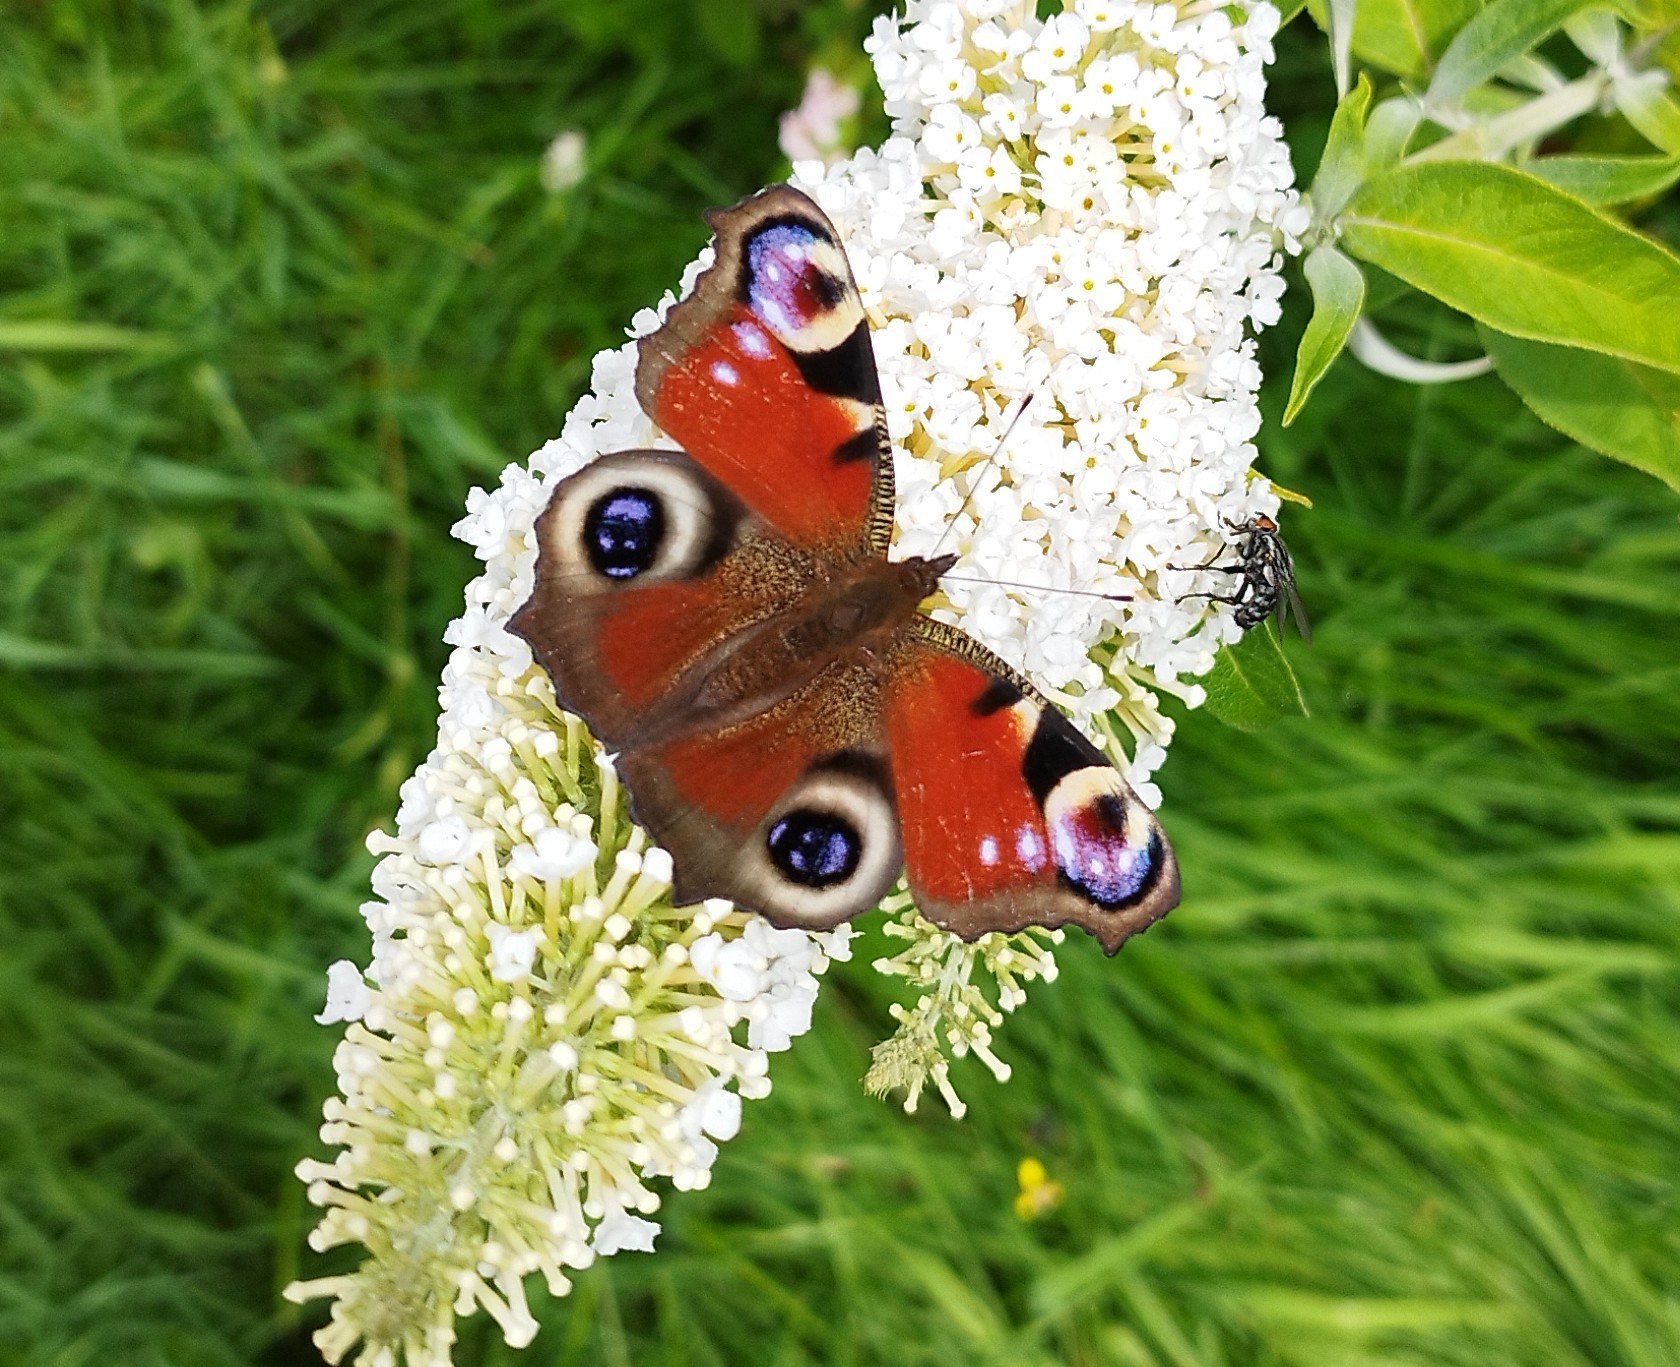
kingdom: Animalia
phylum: Arthropoda
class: Insecta
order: Lepidoptera
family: Nymphalidae
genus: Aglais
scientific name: Aglais io
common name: Dagpåfugleøje
